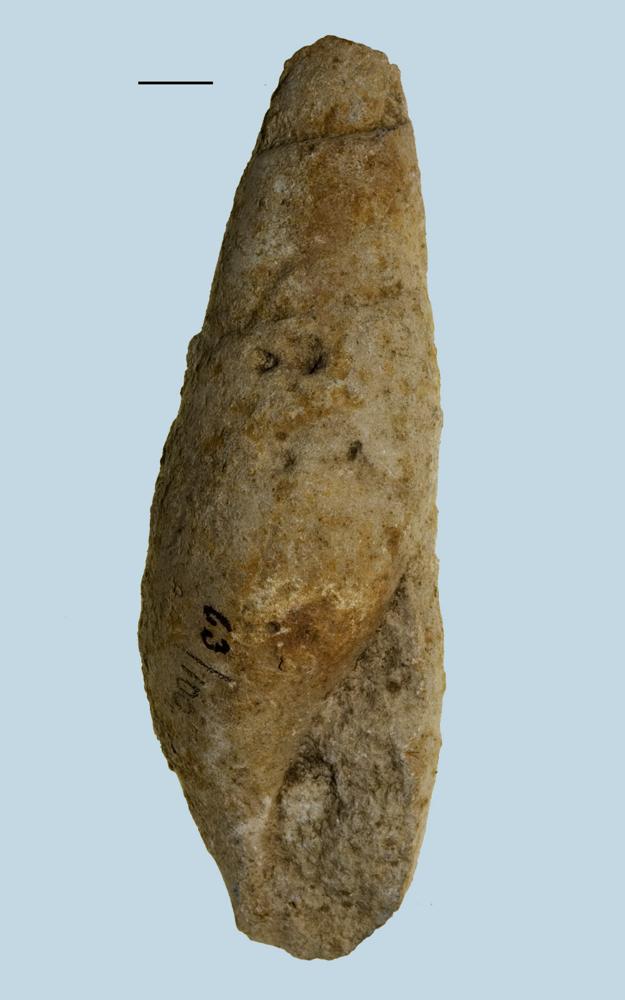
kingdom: Animalia
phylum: Mollusca
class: Gastropoda
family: Subulitidae
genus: Subulites
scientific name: Subulites Phasianella gigas
